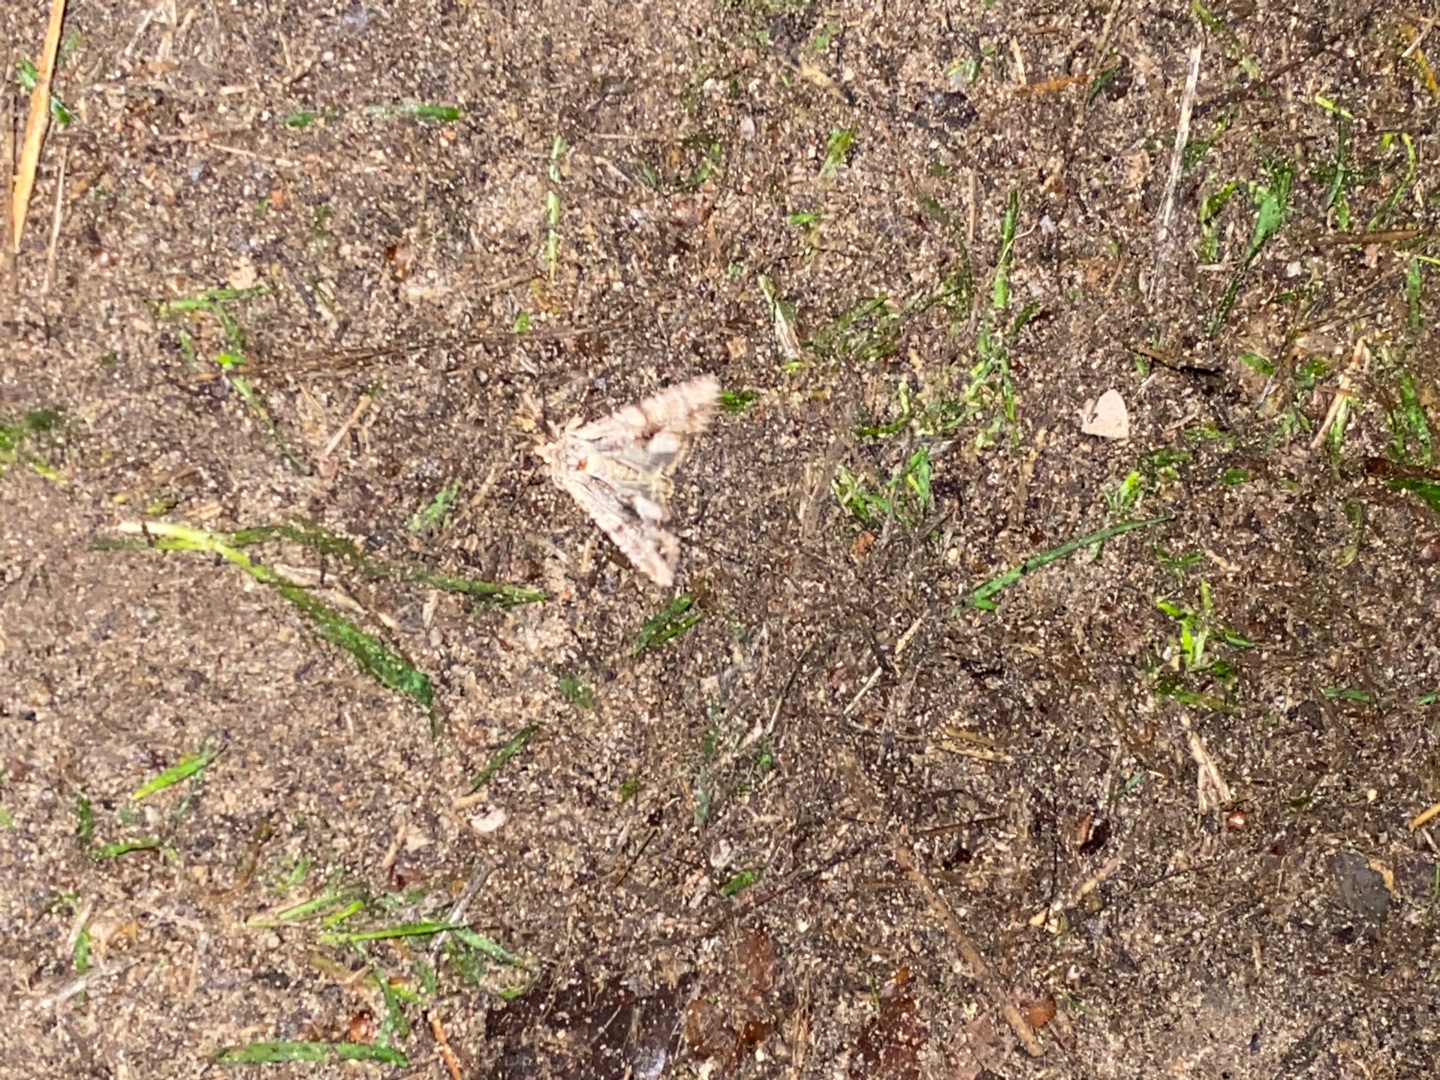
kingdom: Animalia
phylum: Arthropoda
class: Insecta
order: Lepidoptera
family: Noctuidae
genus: Apamea
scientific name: Apamea monoglypha
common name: Jordugle
